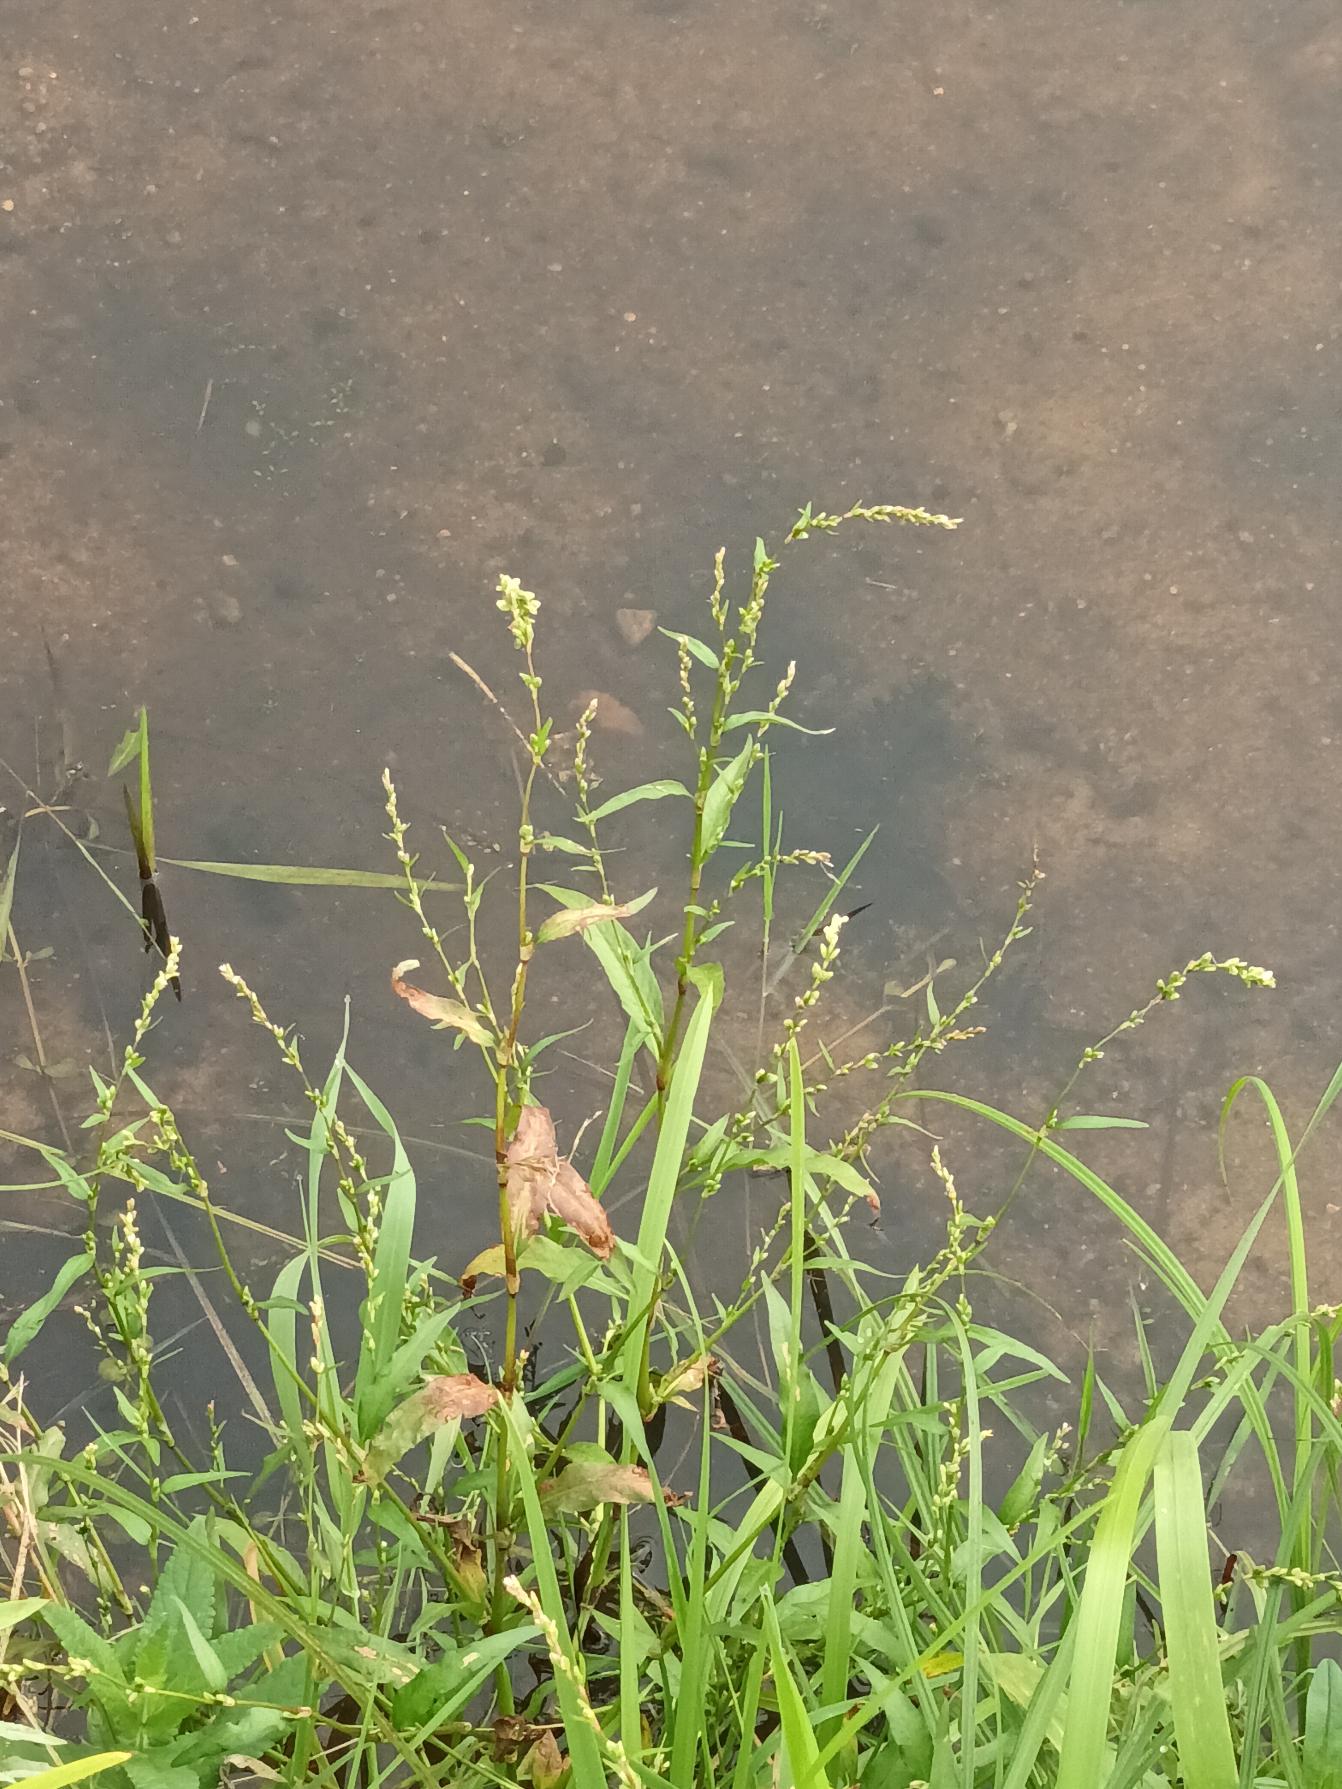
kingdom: Plantae
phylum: Tracheophyta
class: Magnoliopsida
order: Caryophyllales
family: Polygonaceae
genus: Persicaria
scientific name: Persicaria hydropiper
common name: Bidende pileurt
